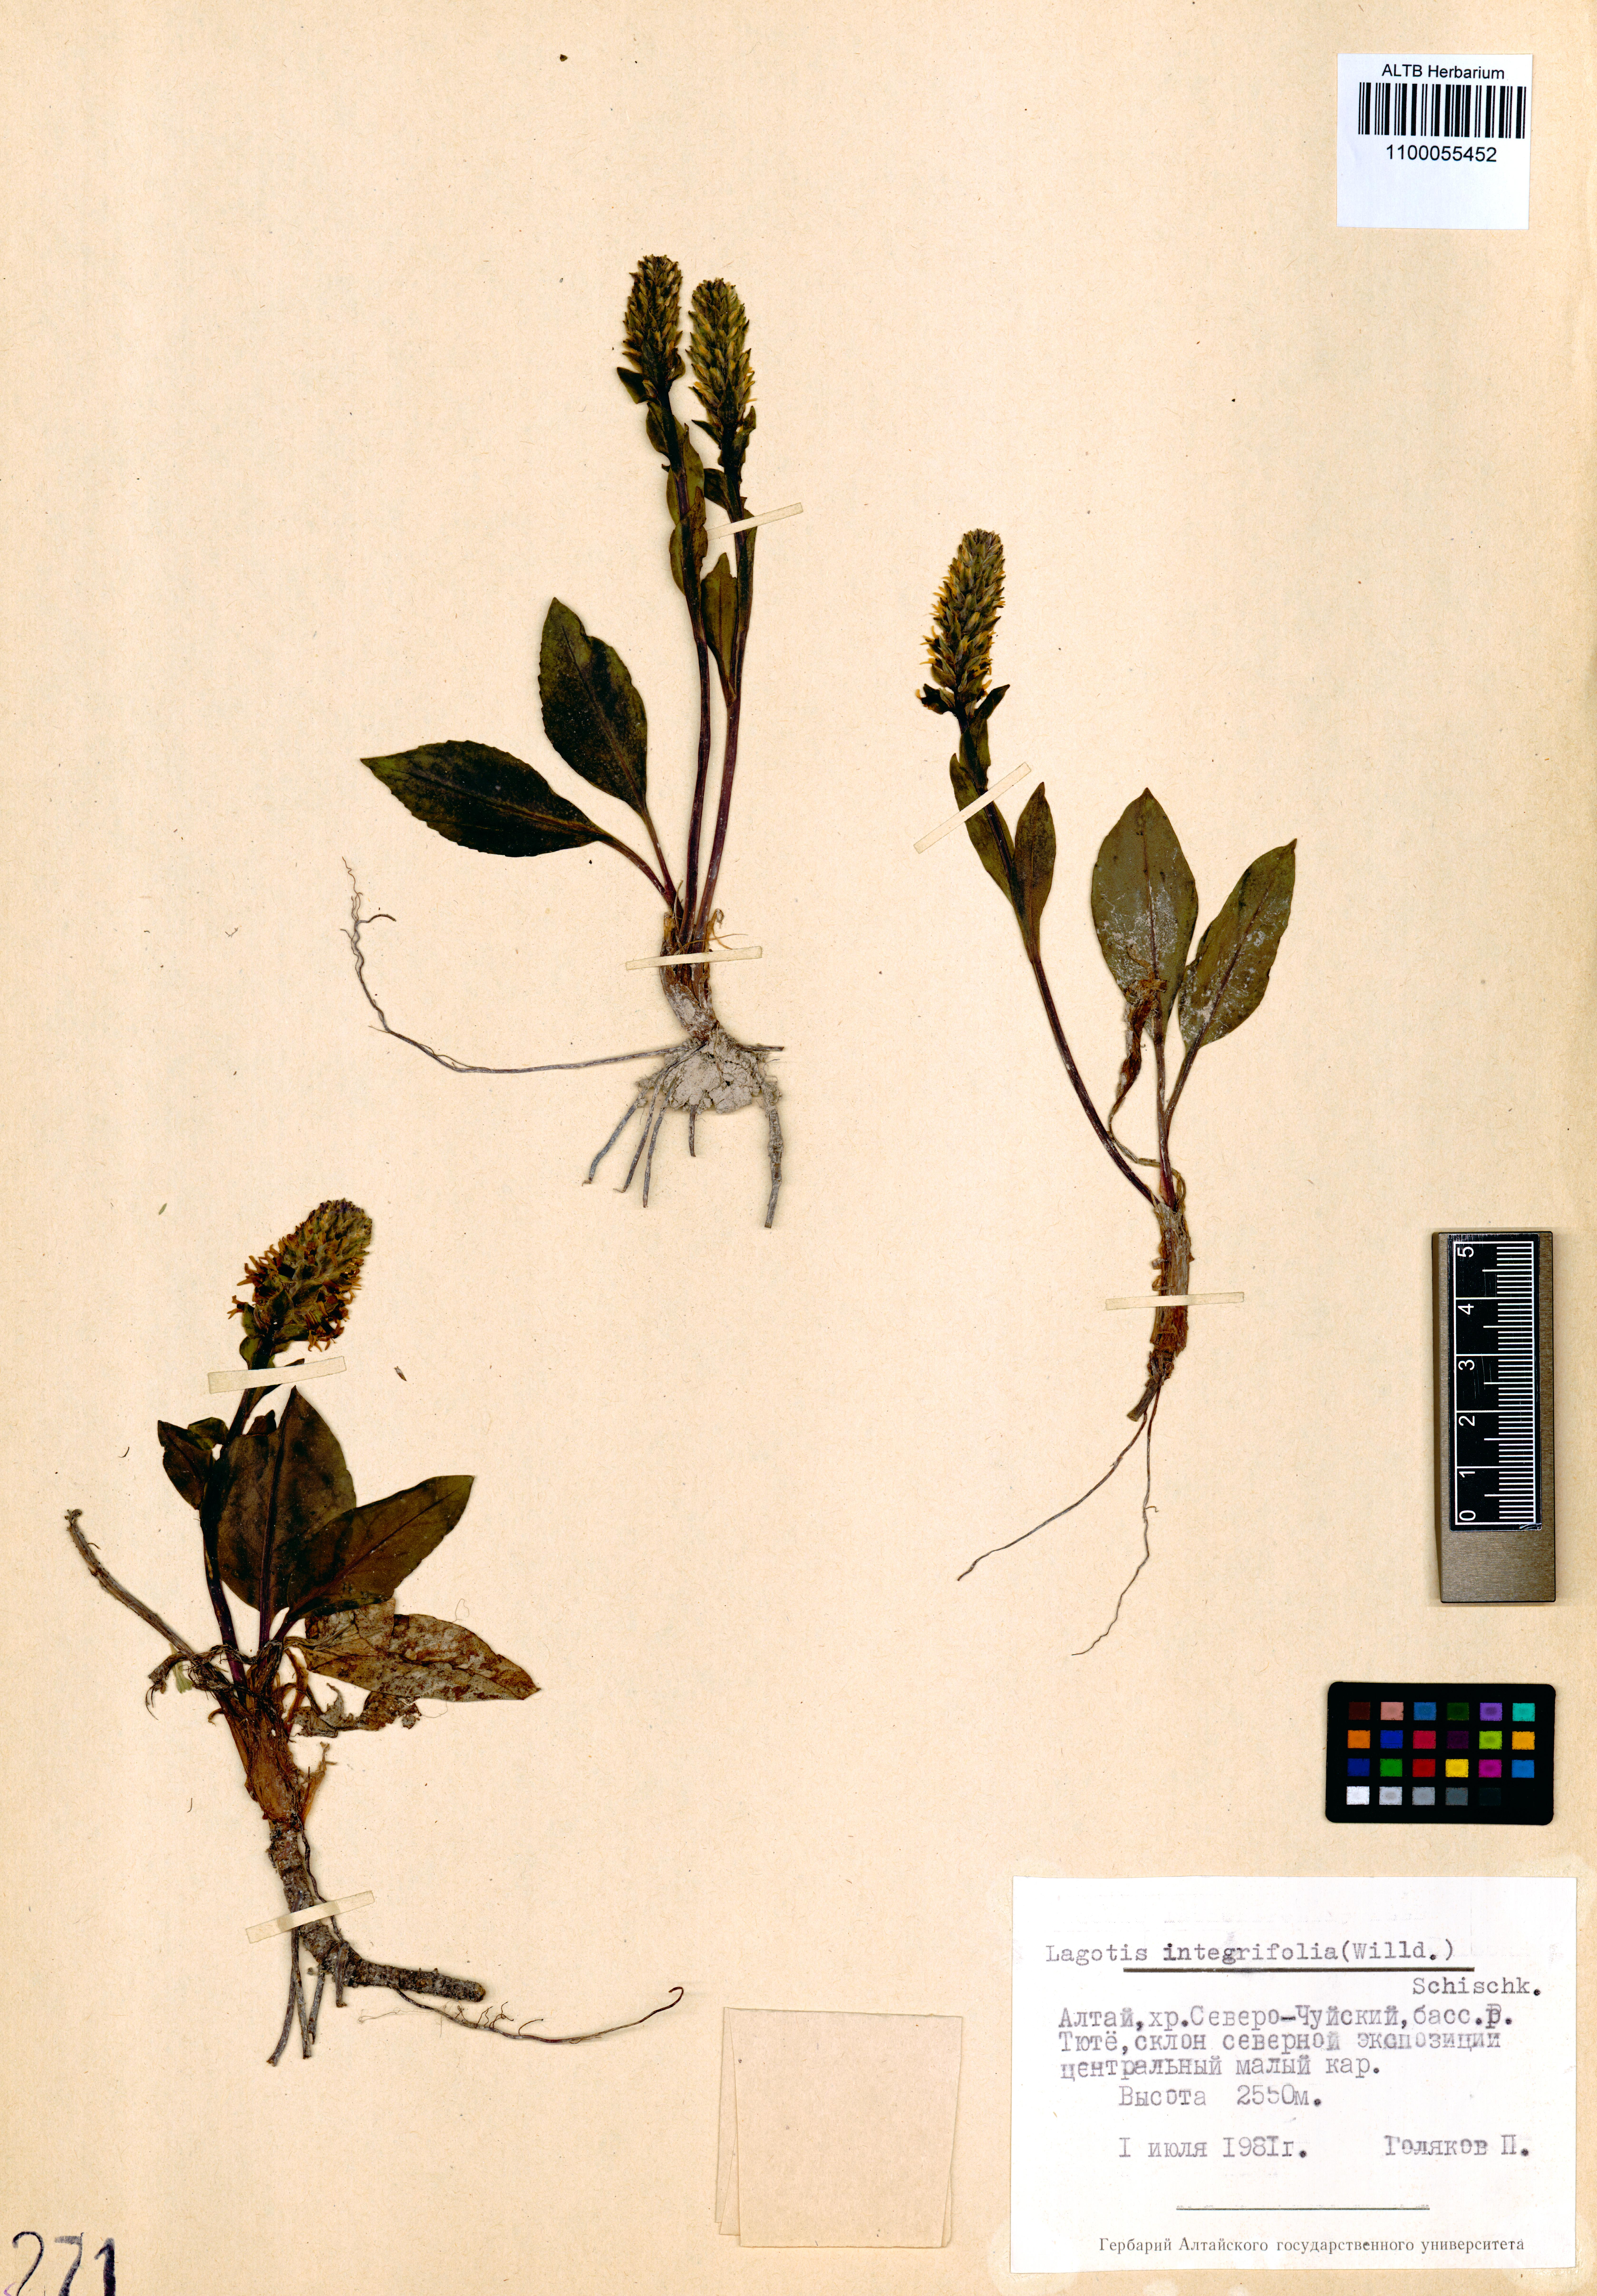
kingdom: Plantae
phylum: Tracheophyta
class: Magnoliopsida
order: Lamiales
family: Plantaginaceae
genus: Lagotis
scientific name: Lagotis integrifolia
